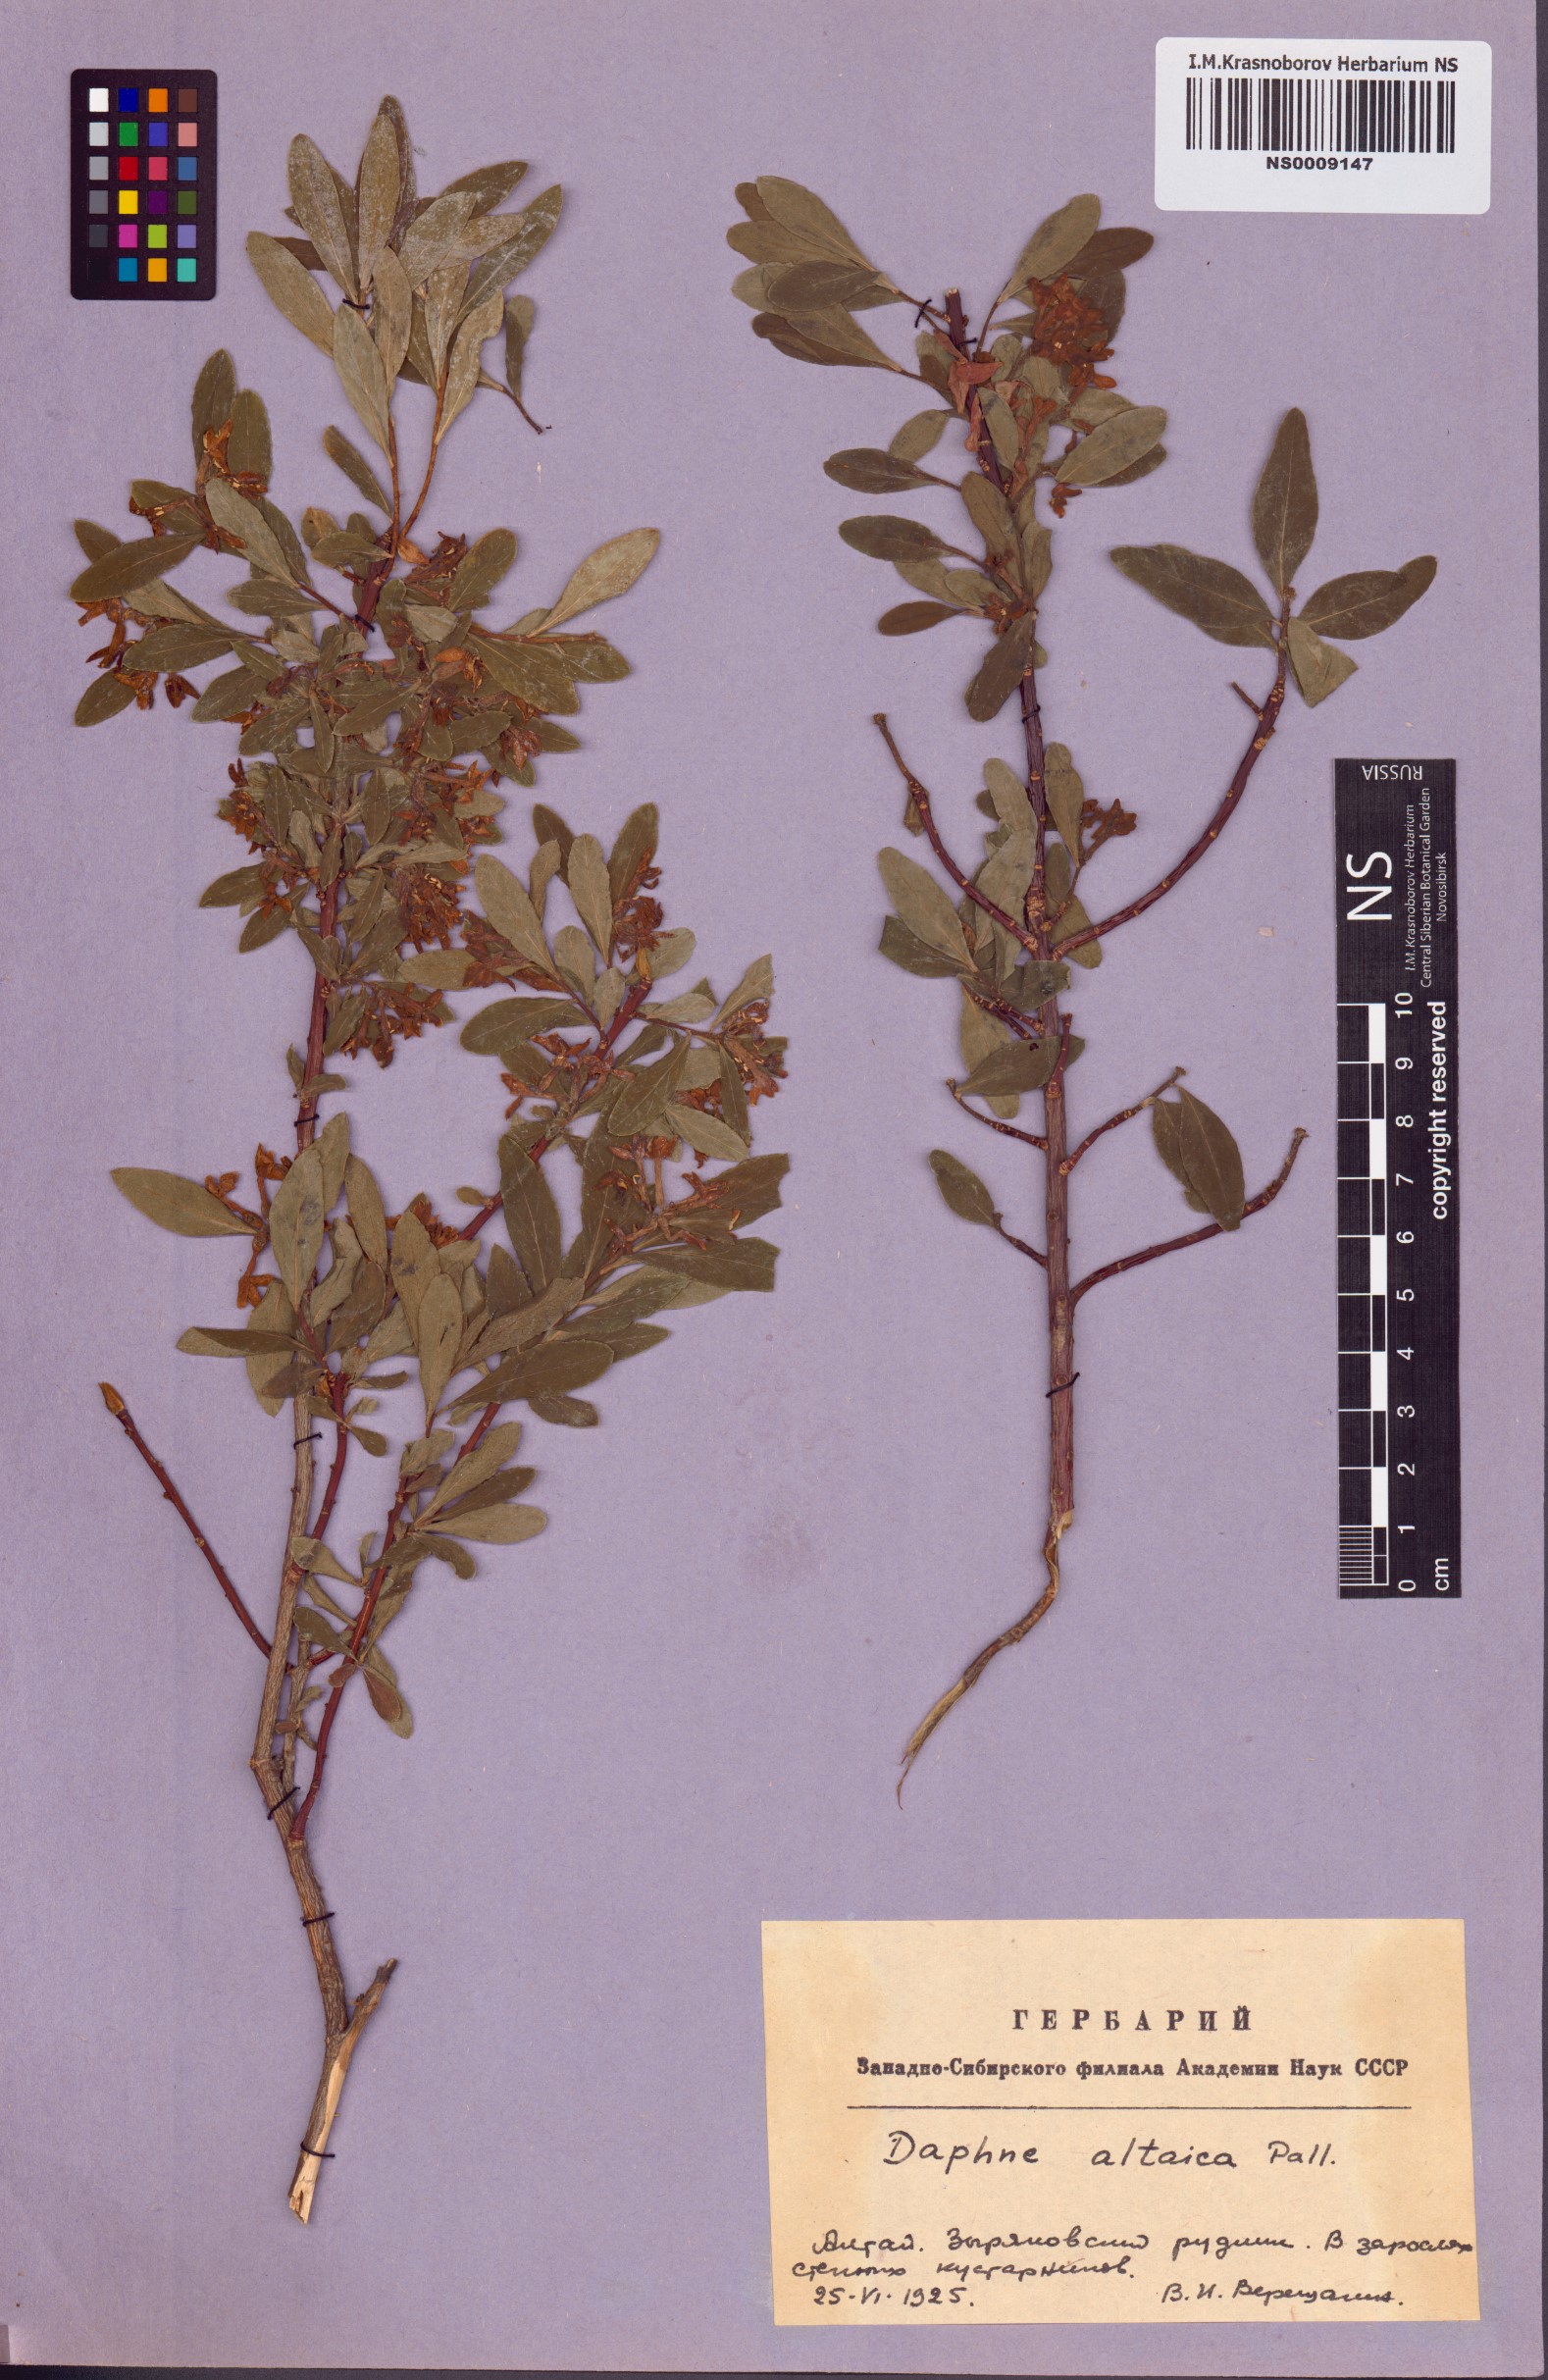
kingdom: Plantae
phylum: Tracheophyta
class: Magnoliopsida
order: Malvales
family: Thymelaeaceae
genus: Daphne
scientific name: Daphne altaica
